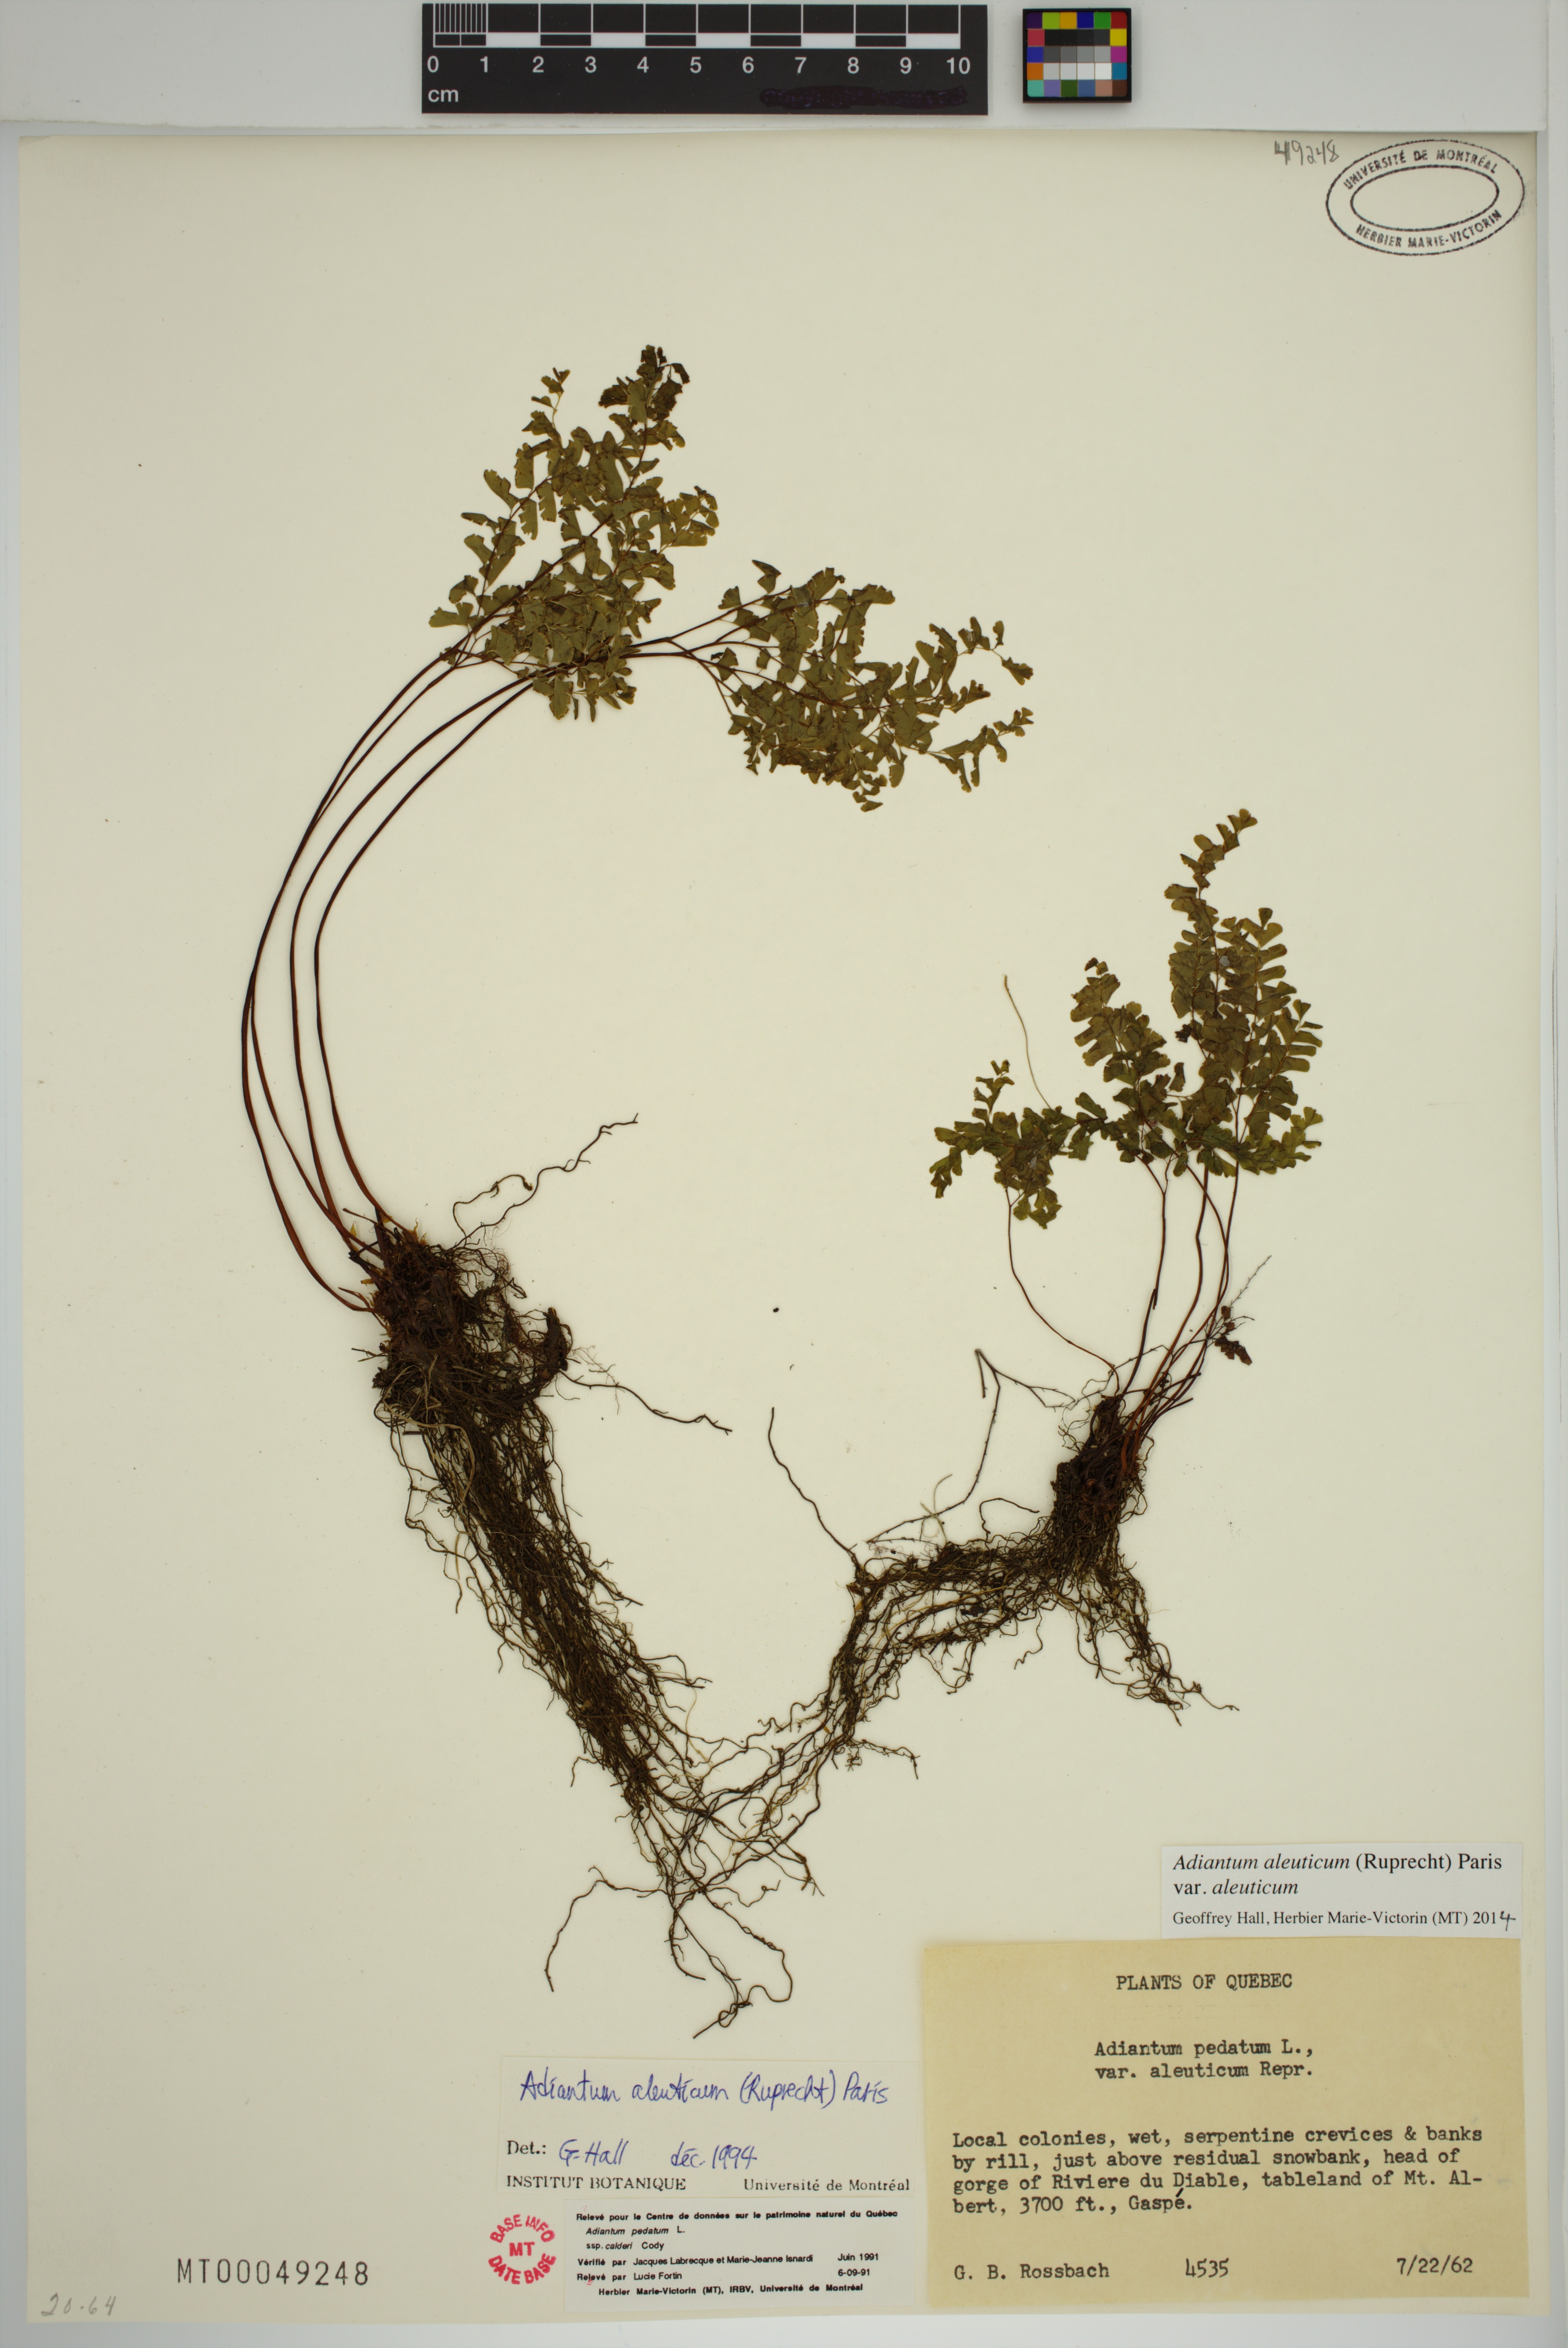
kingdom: Plantae
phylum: Tracheophyta
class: Polypodiopsida
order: Polypodiales
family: Pteridaceae
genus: Adiantum
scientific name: Adiantum aleuticum
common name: Aleutian maidenhair fern
